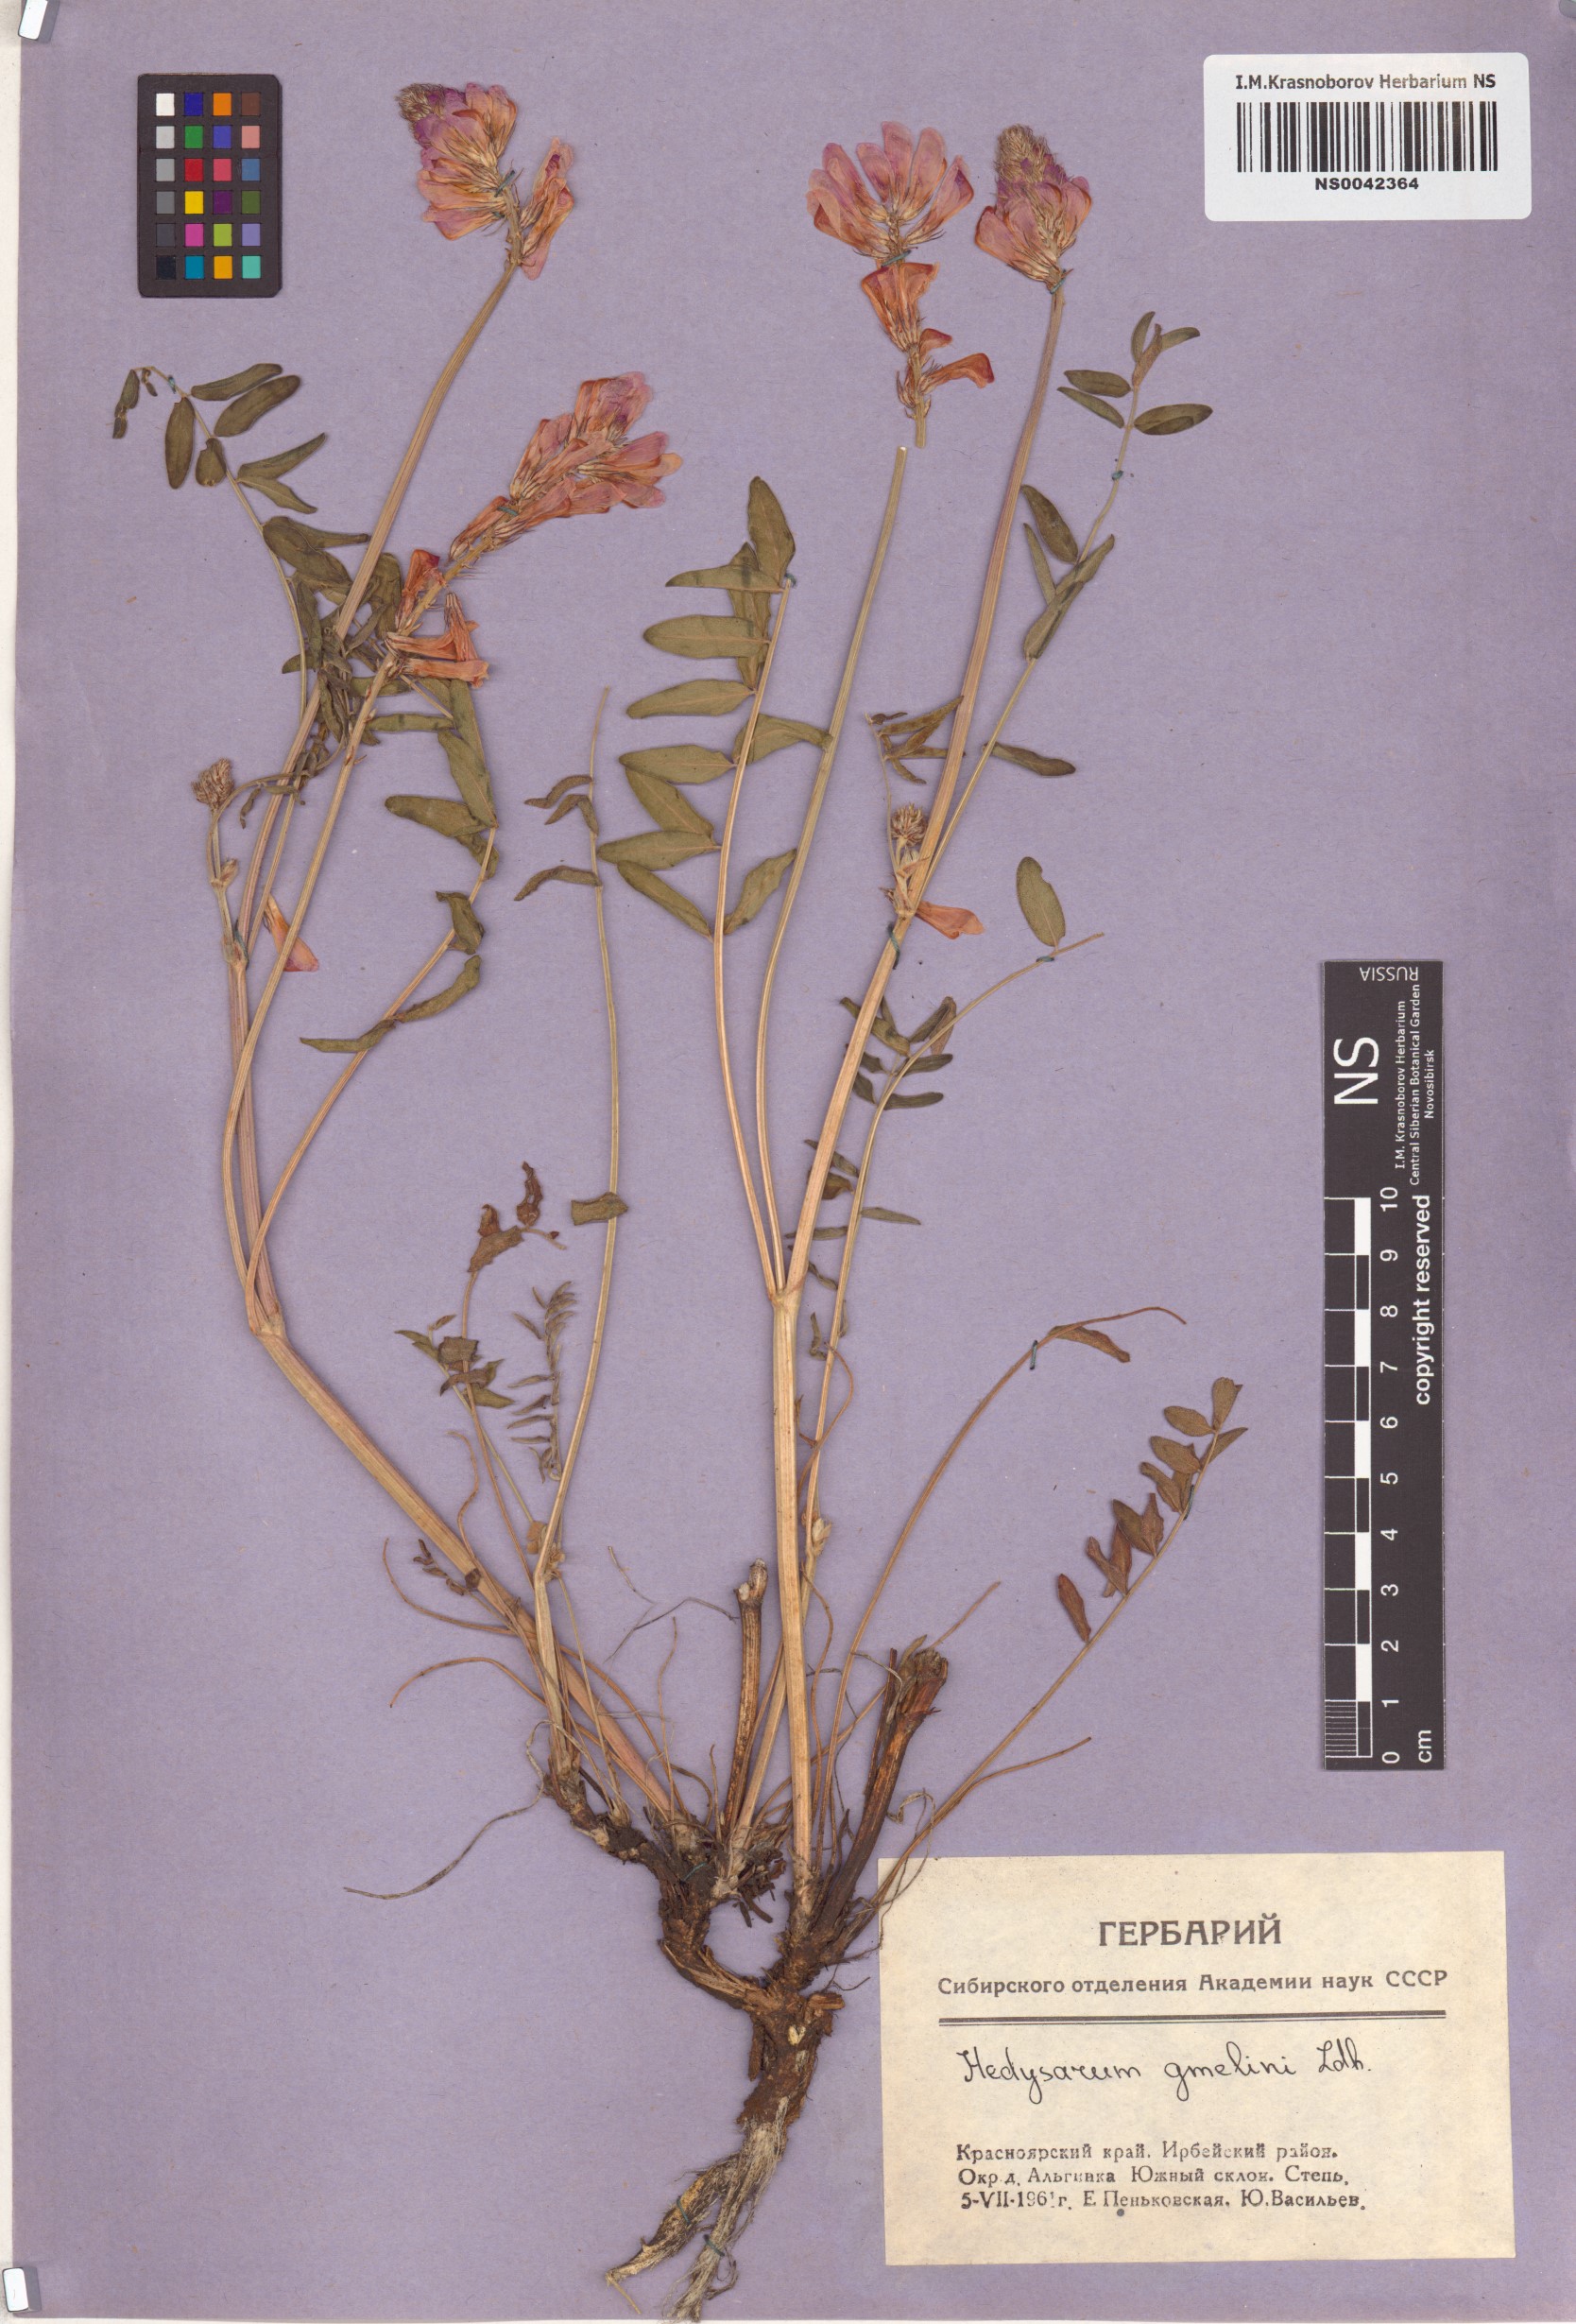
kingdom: Plantae
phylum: Tracheophyta
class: Magnoliopsida
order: Fabales
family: Fabaceae
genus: Hedysarum
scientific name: Hedysarum gmelinii
